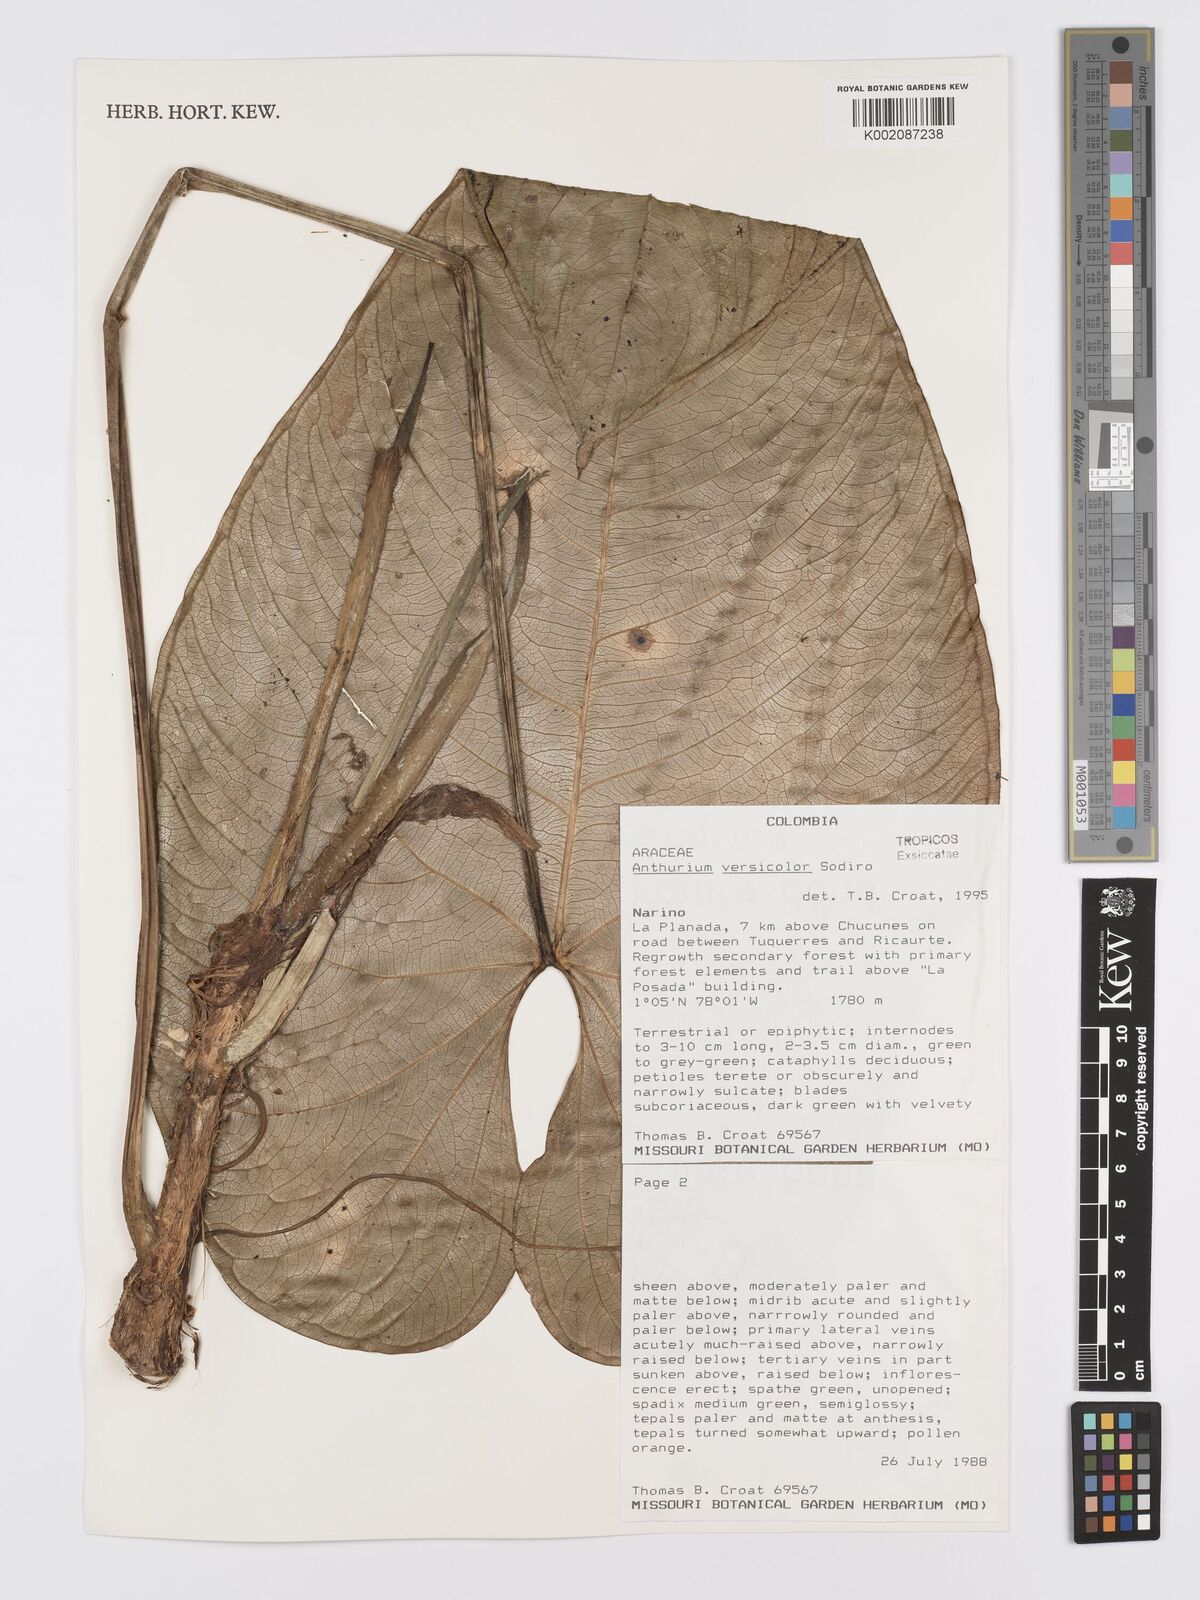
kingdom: Plantae
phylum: Tracheophyta
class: Liliopsida
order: Alismatales
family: Araceae
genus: Anthurium
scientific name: Anthurium versicolor
